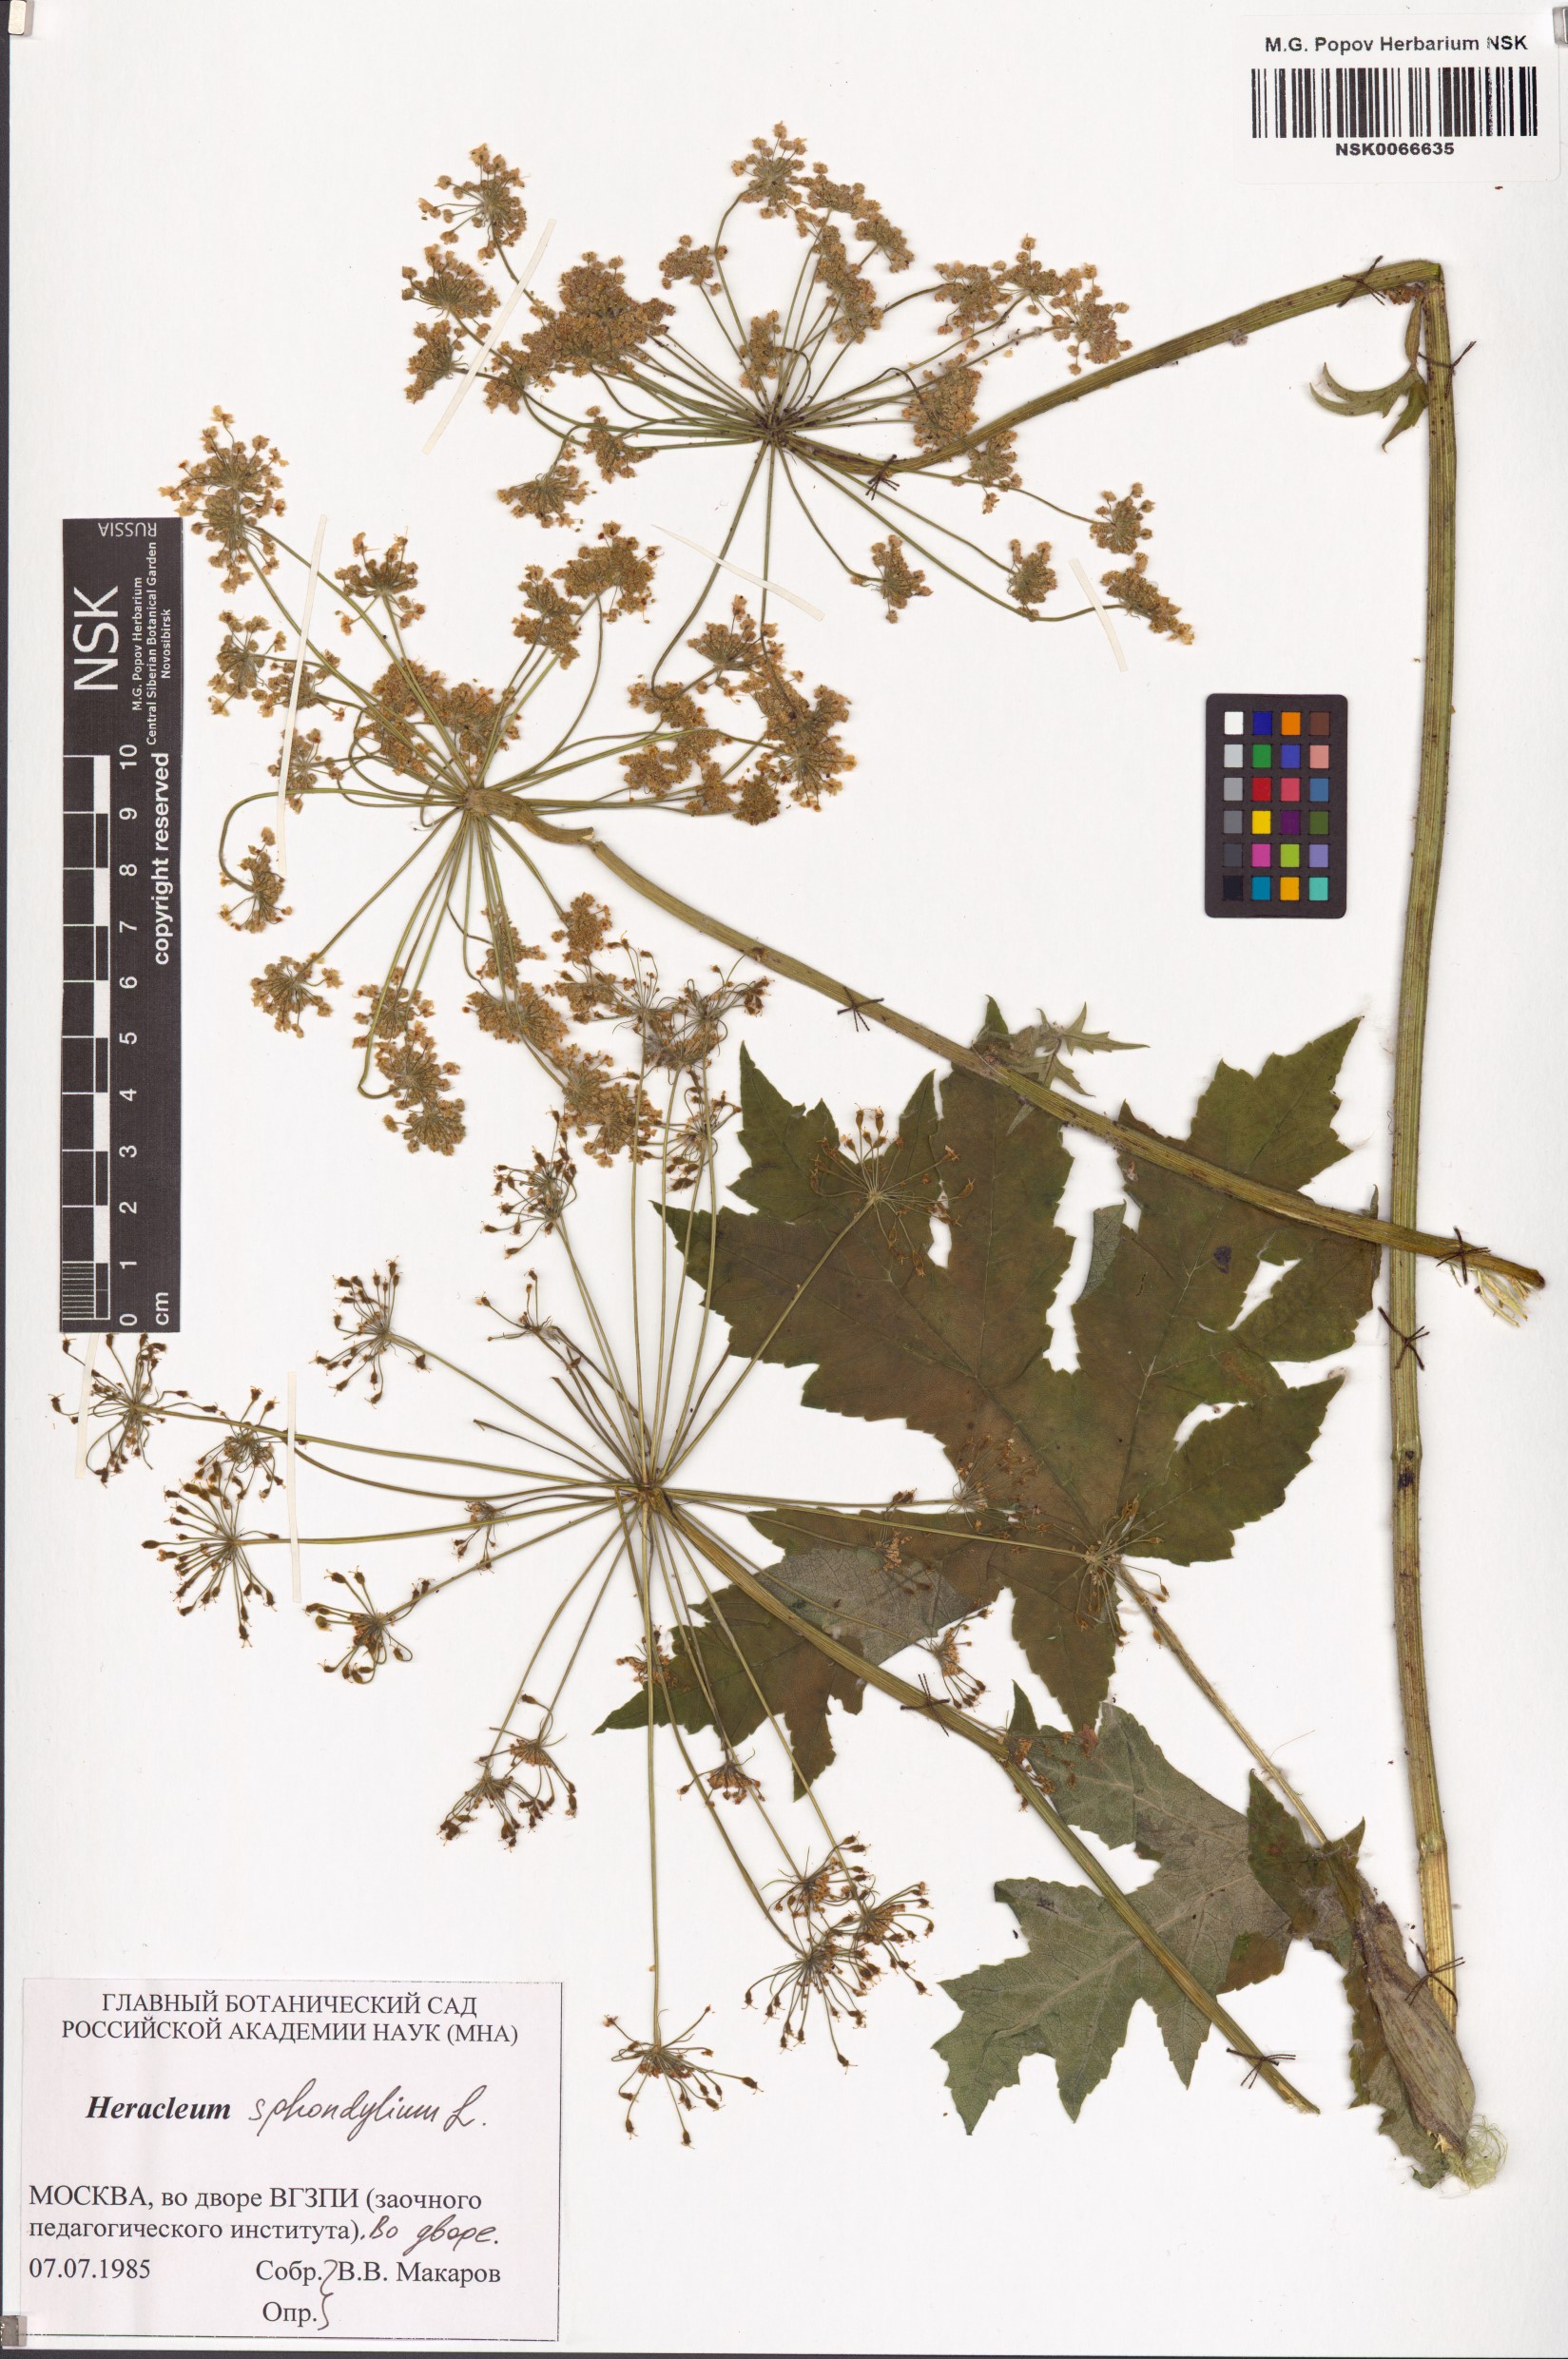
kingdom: Plantae
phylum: Tracheophyta
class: Magnoliopsida
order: Apiales
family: Apiaceae
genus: Heracleum
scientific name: Heracleum sphondylium
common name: Hogweed
